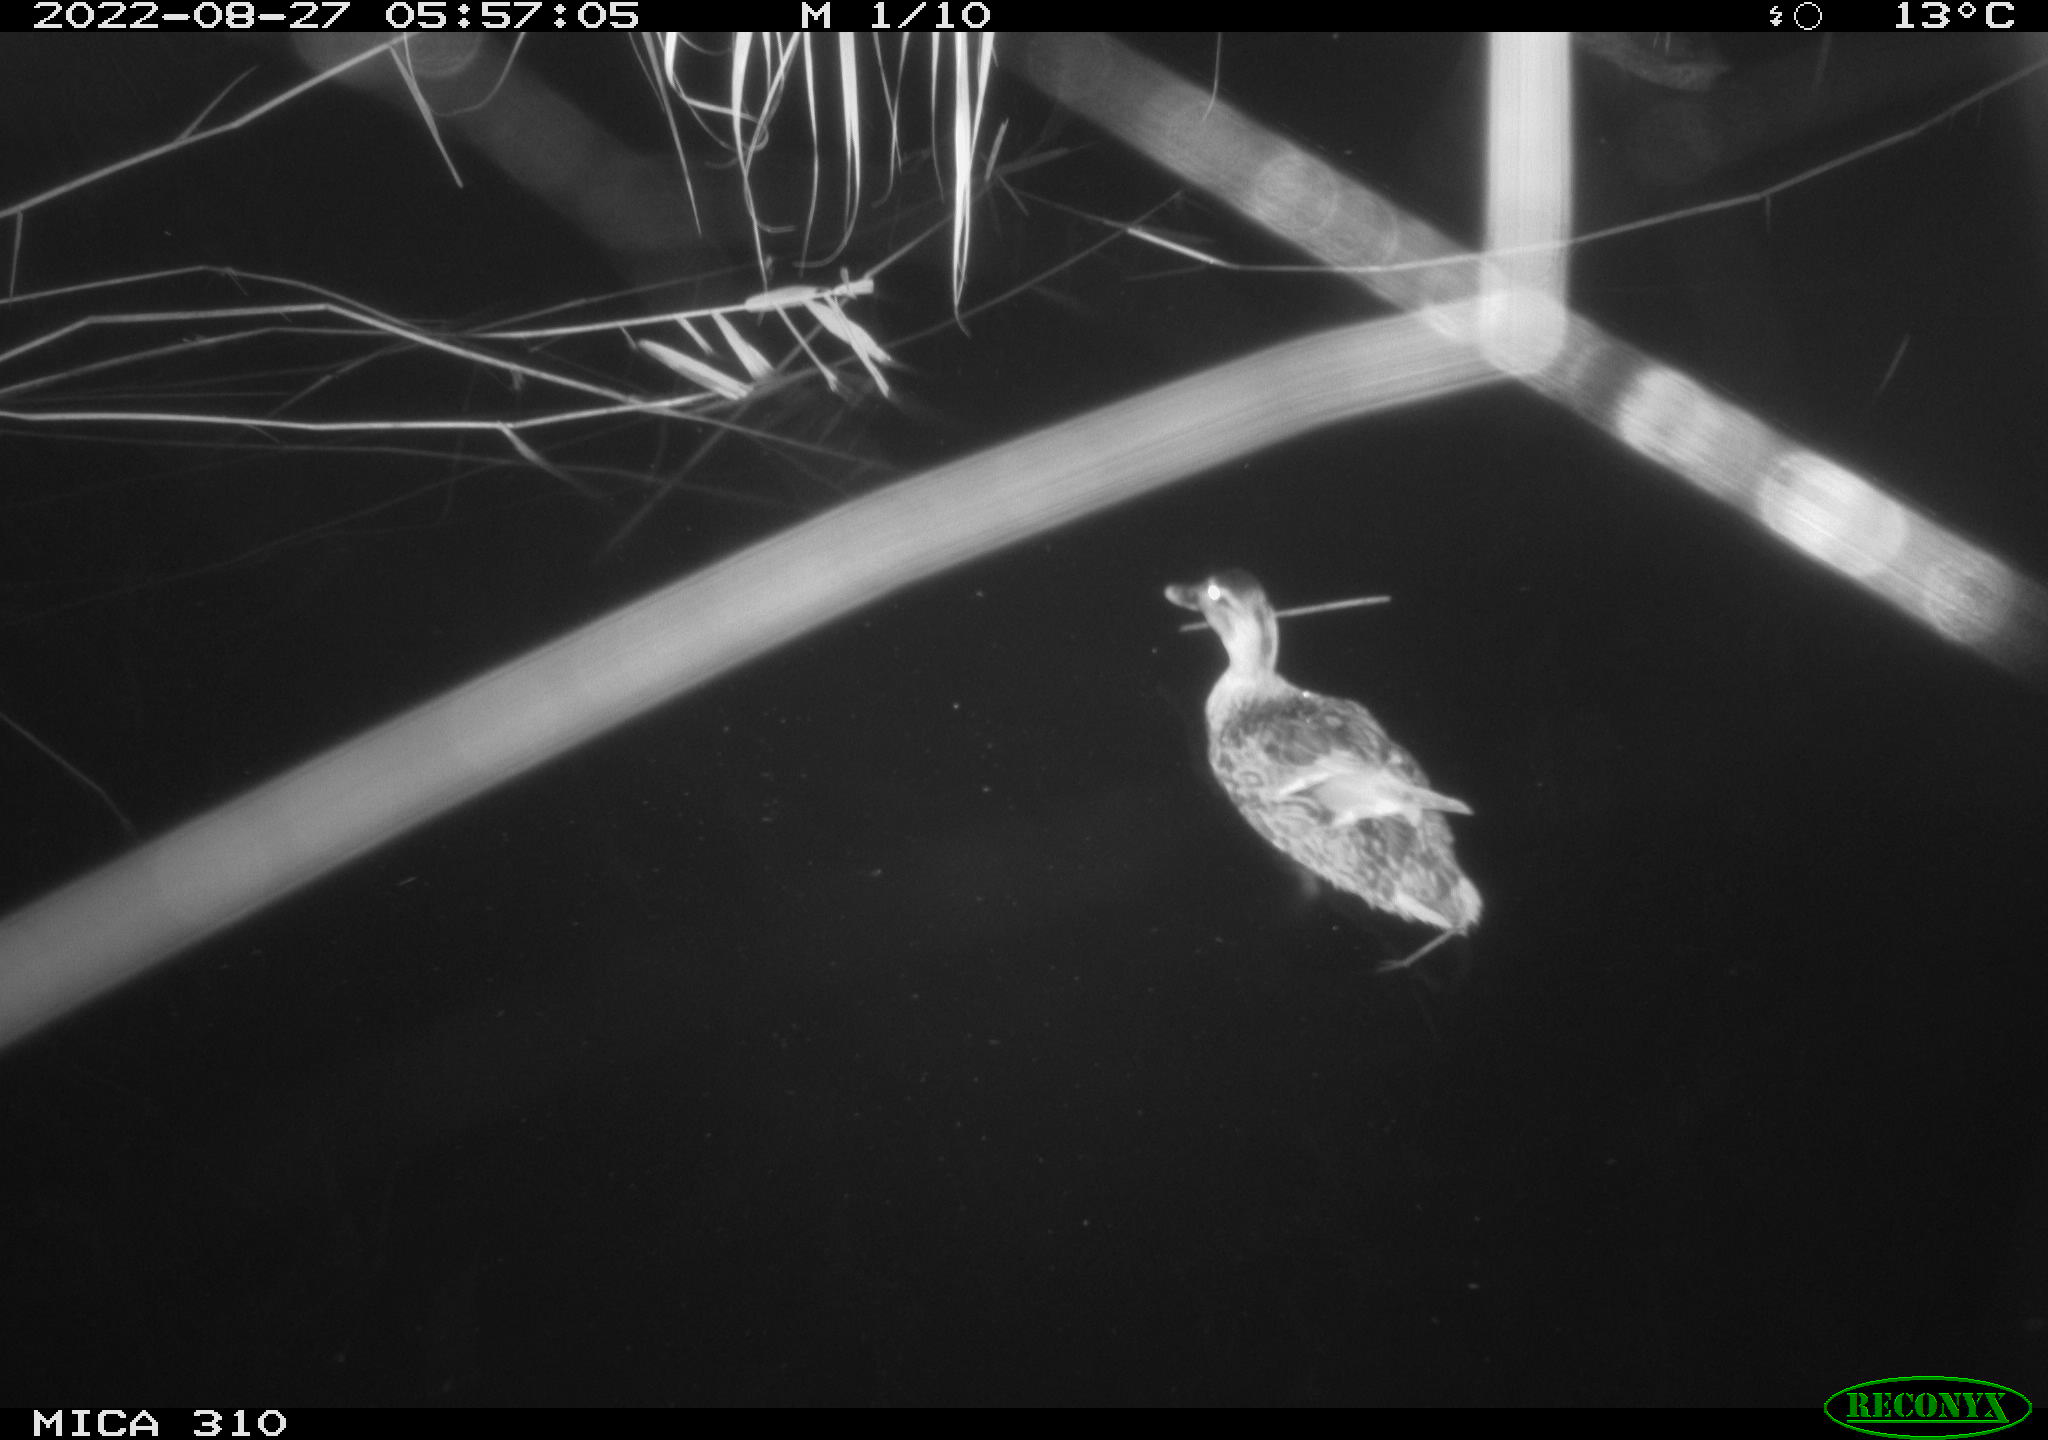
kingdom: Animalia
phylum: Chordata
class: Aves
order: Pelecaniformes
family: Ardeidae
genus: Ardea
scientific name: Ardea
